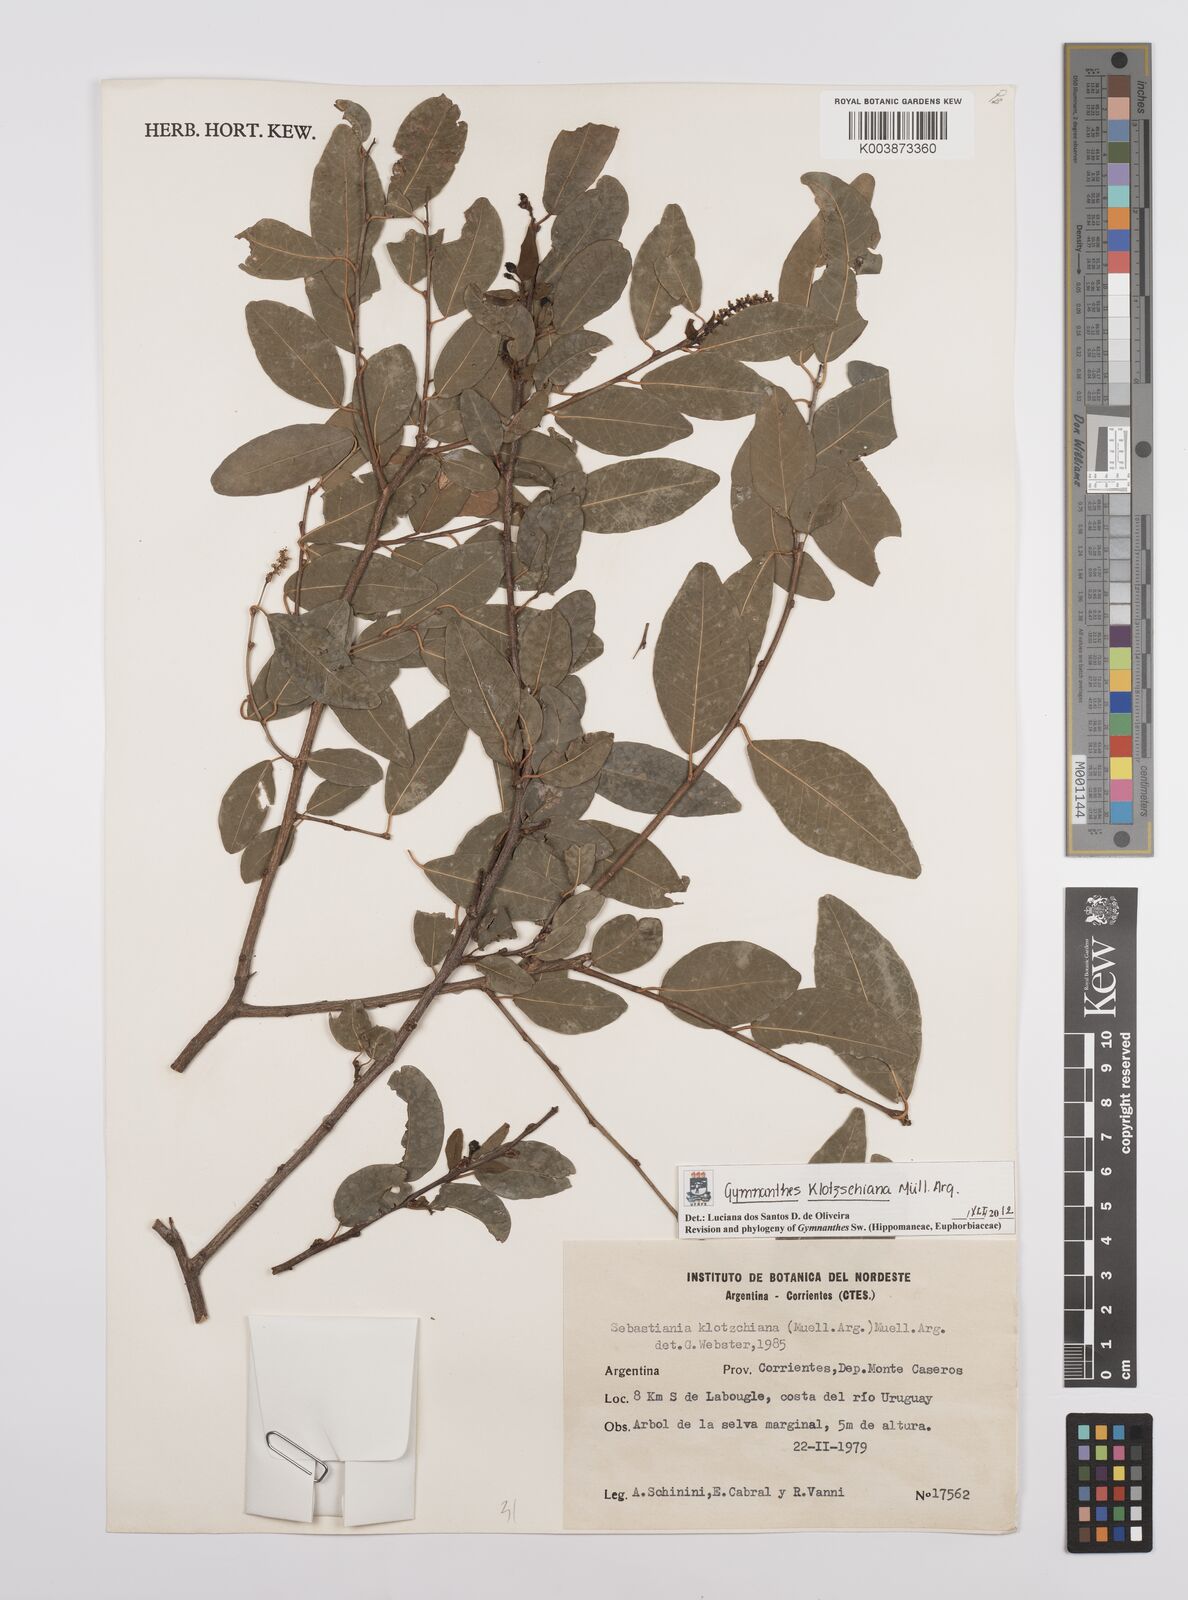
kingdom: Plantae
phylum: Tracheophyta
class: Magnoliopsida
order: Malpighiales
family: Euphorbiaceae
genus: Sebastiania
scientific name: Sebastiania klotzschiana
